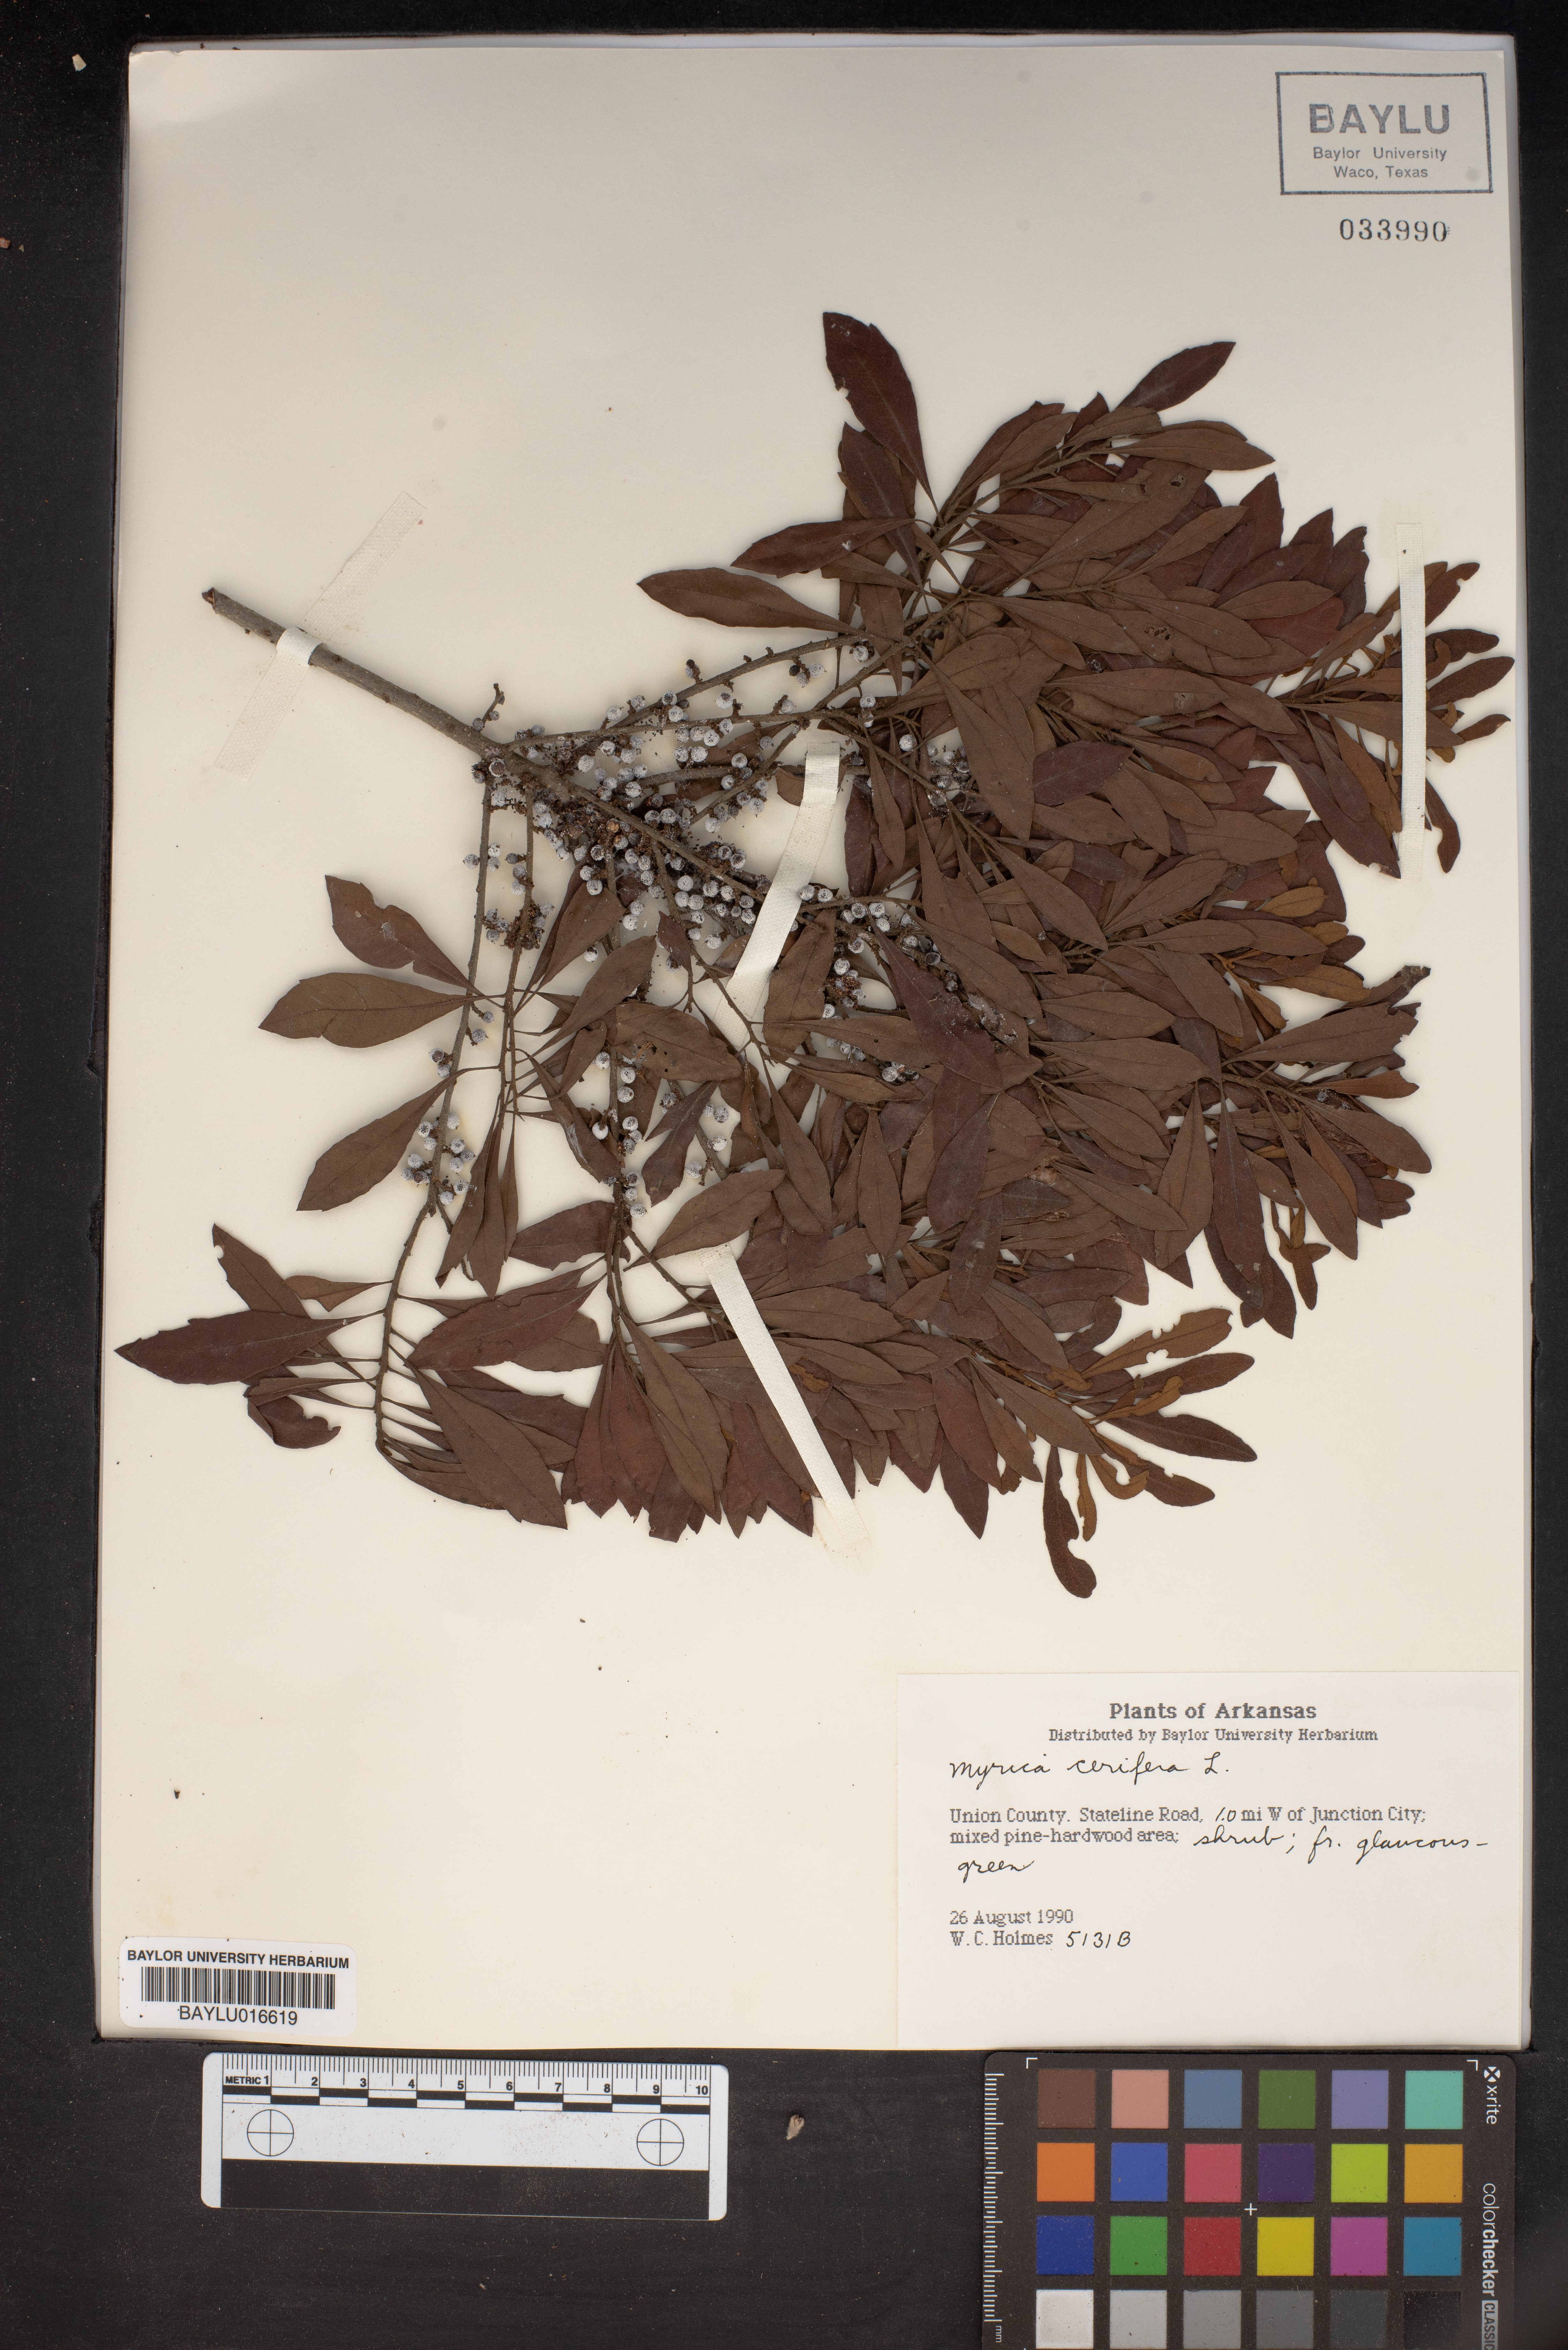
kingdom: Plantae
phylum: Tracheophyta
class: Magnoliopsida
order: Fagales
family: Myricaceae
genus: Morella
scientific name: Morella cerifera
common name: Wax myrtle
